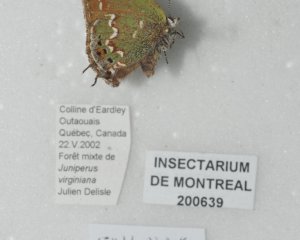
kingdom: Animalia
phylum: Arthropoda
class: Insecta
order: Lepidoptera
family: Lycaenidae
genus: Mitoura
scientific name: Mitoura gryneus
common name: Juniper Hairstreak
